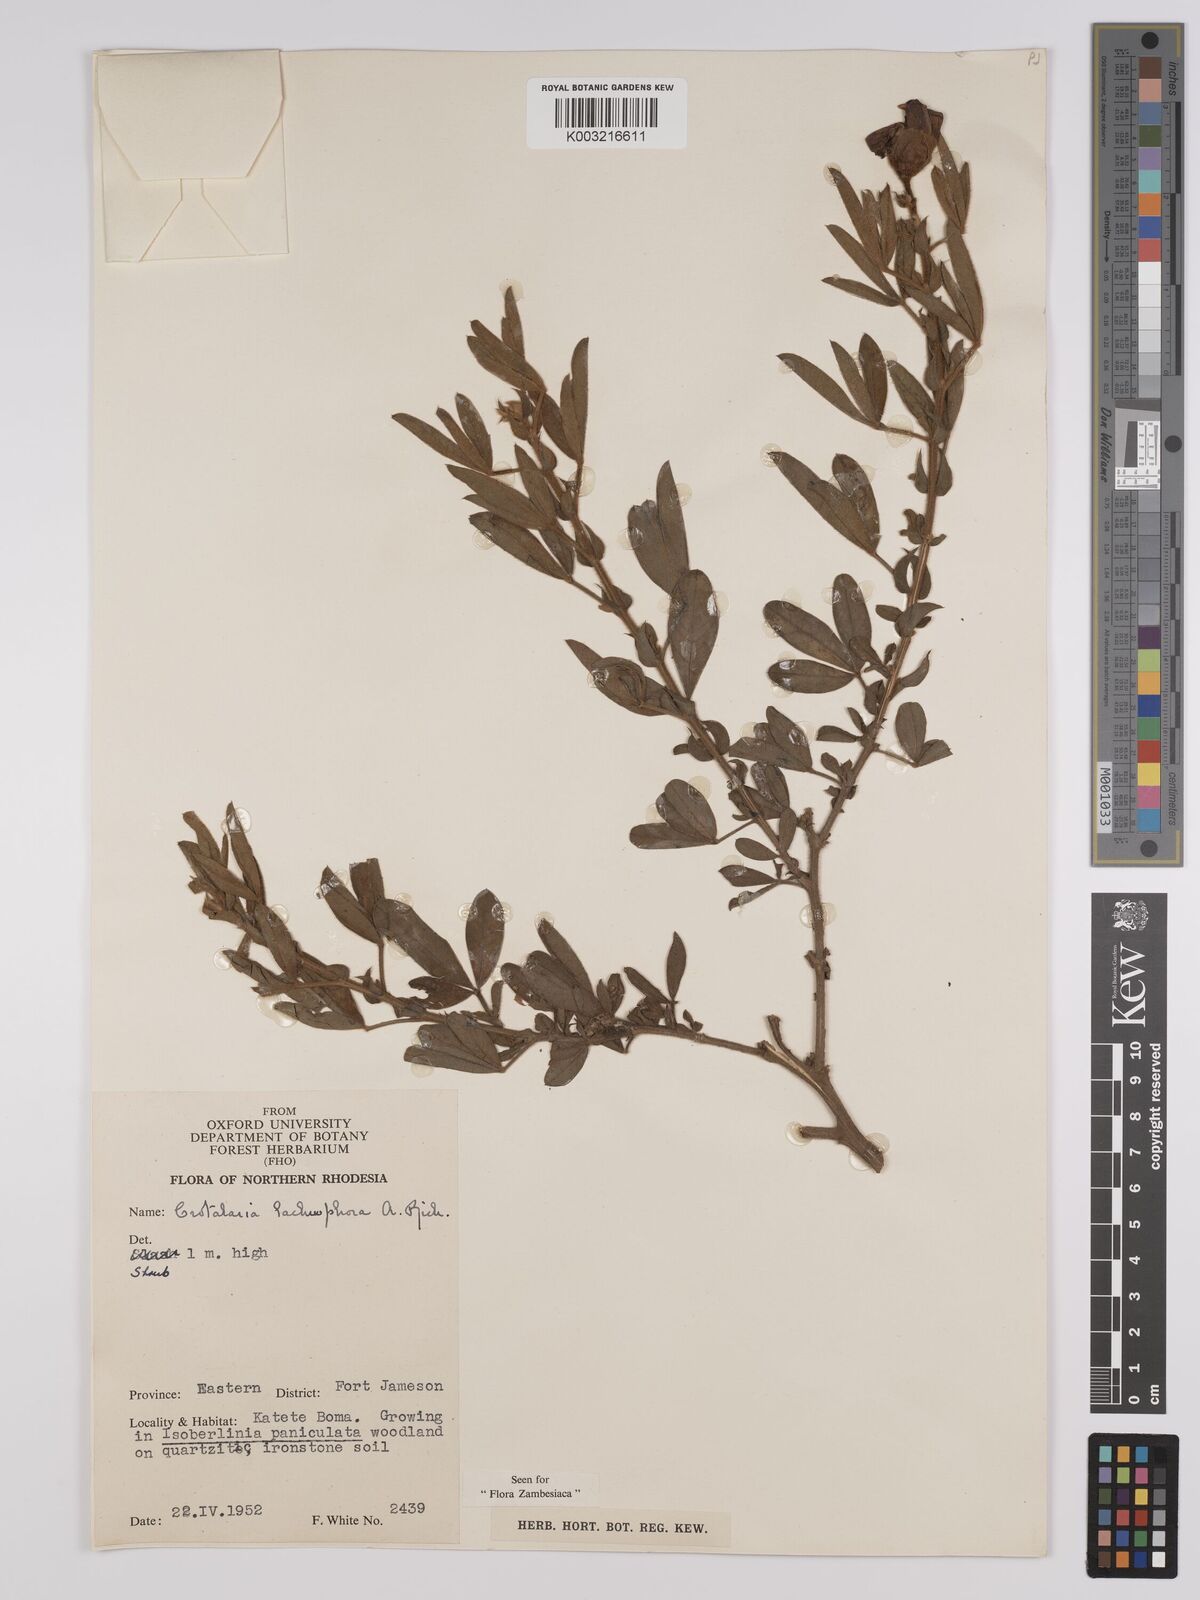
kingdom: Plantae
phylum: Tracheophyta
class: Magnoliopsida
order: Fabales
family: Fabaceae
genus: Crotalaria
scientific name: Crotalaria lachnophora
